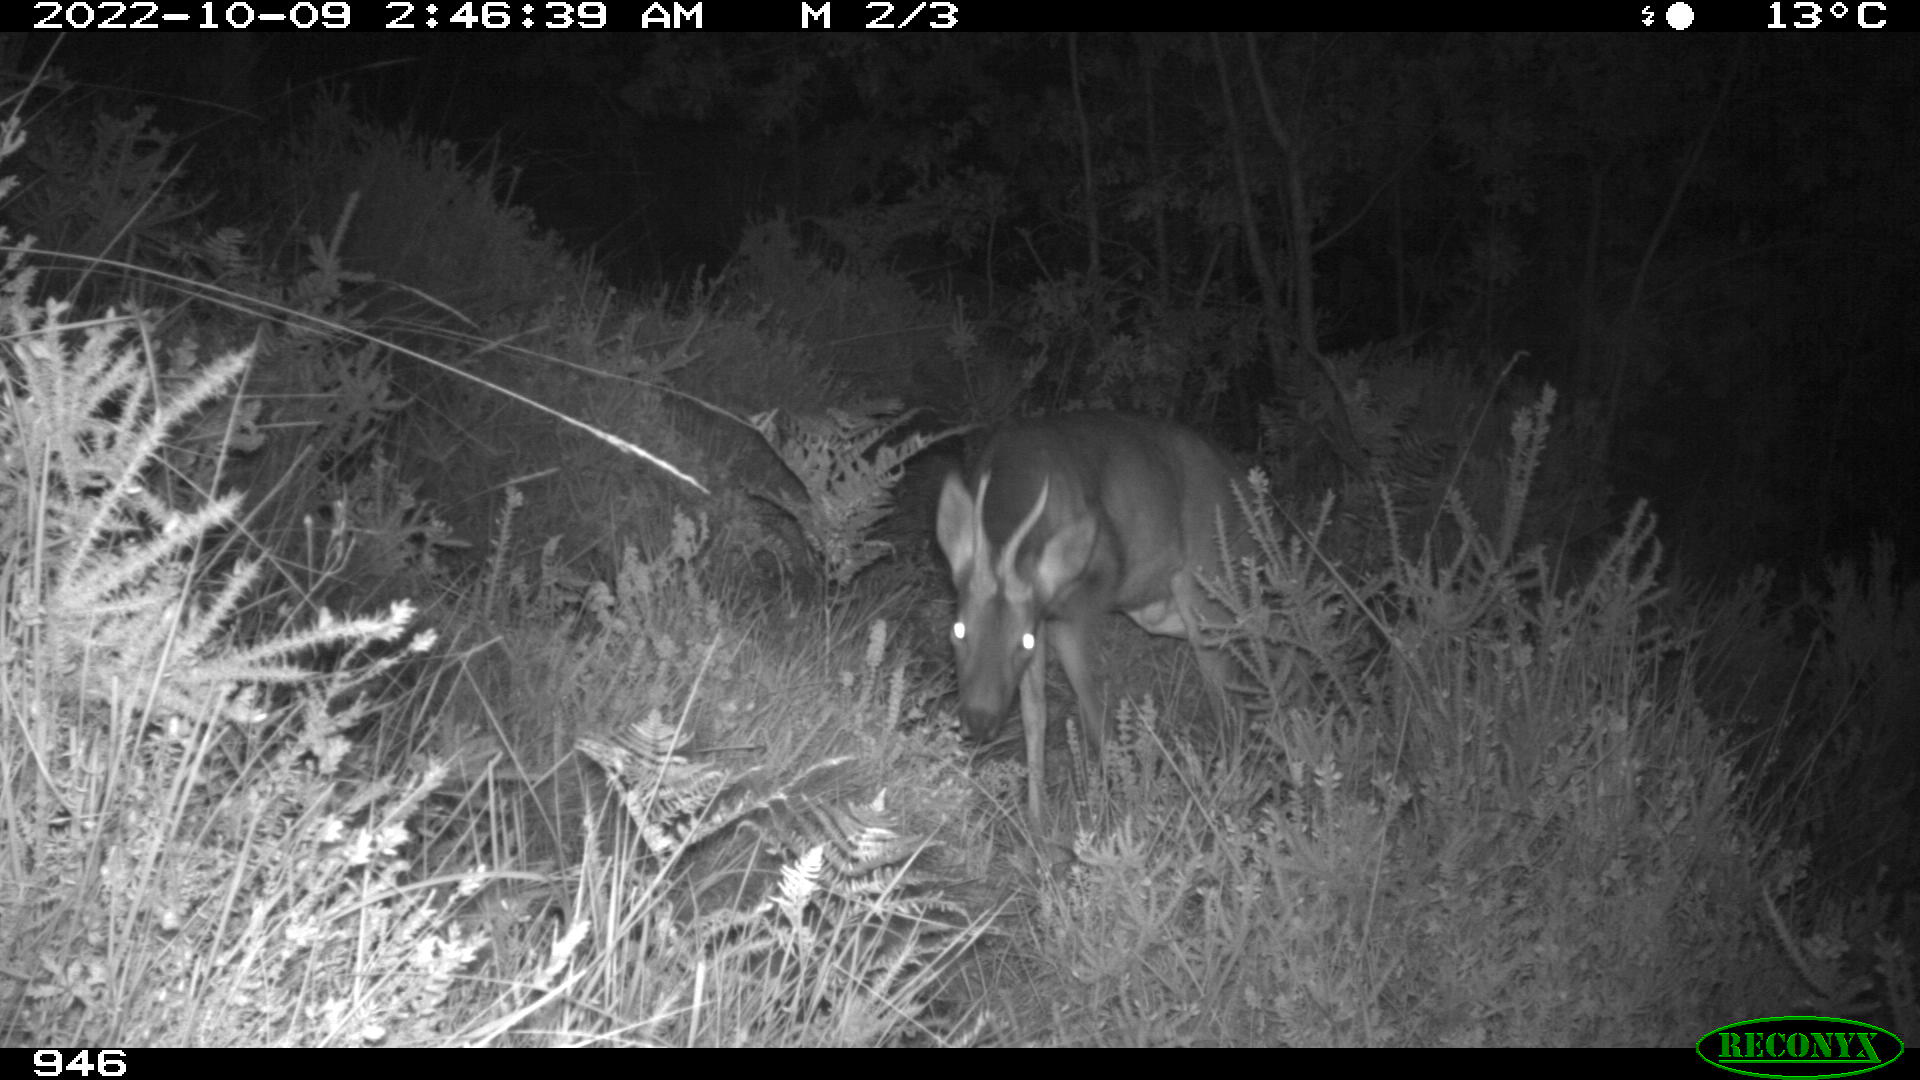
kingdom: Animalia
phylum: Chordata
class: Mammalia
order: Artiodactyla
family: Cervidae
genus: Capreolus
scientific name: Capreolus capreolus
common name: Western roe deer
